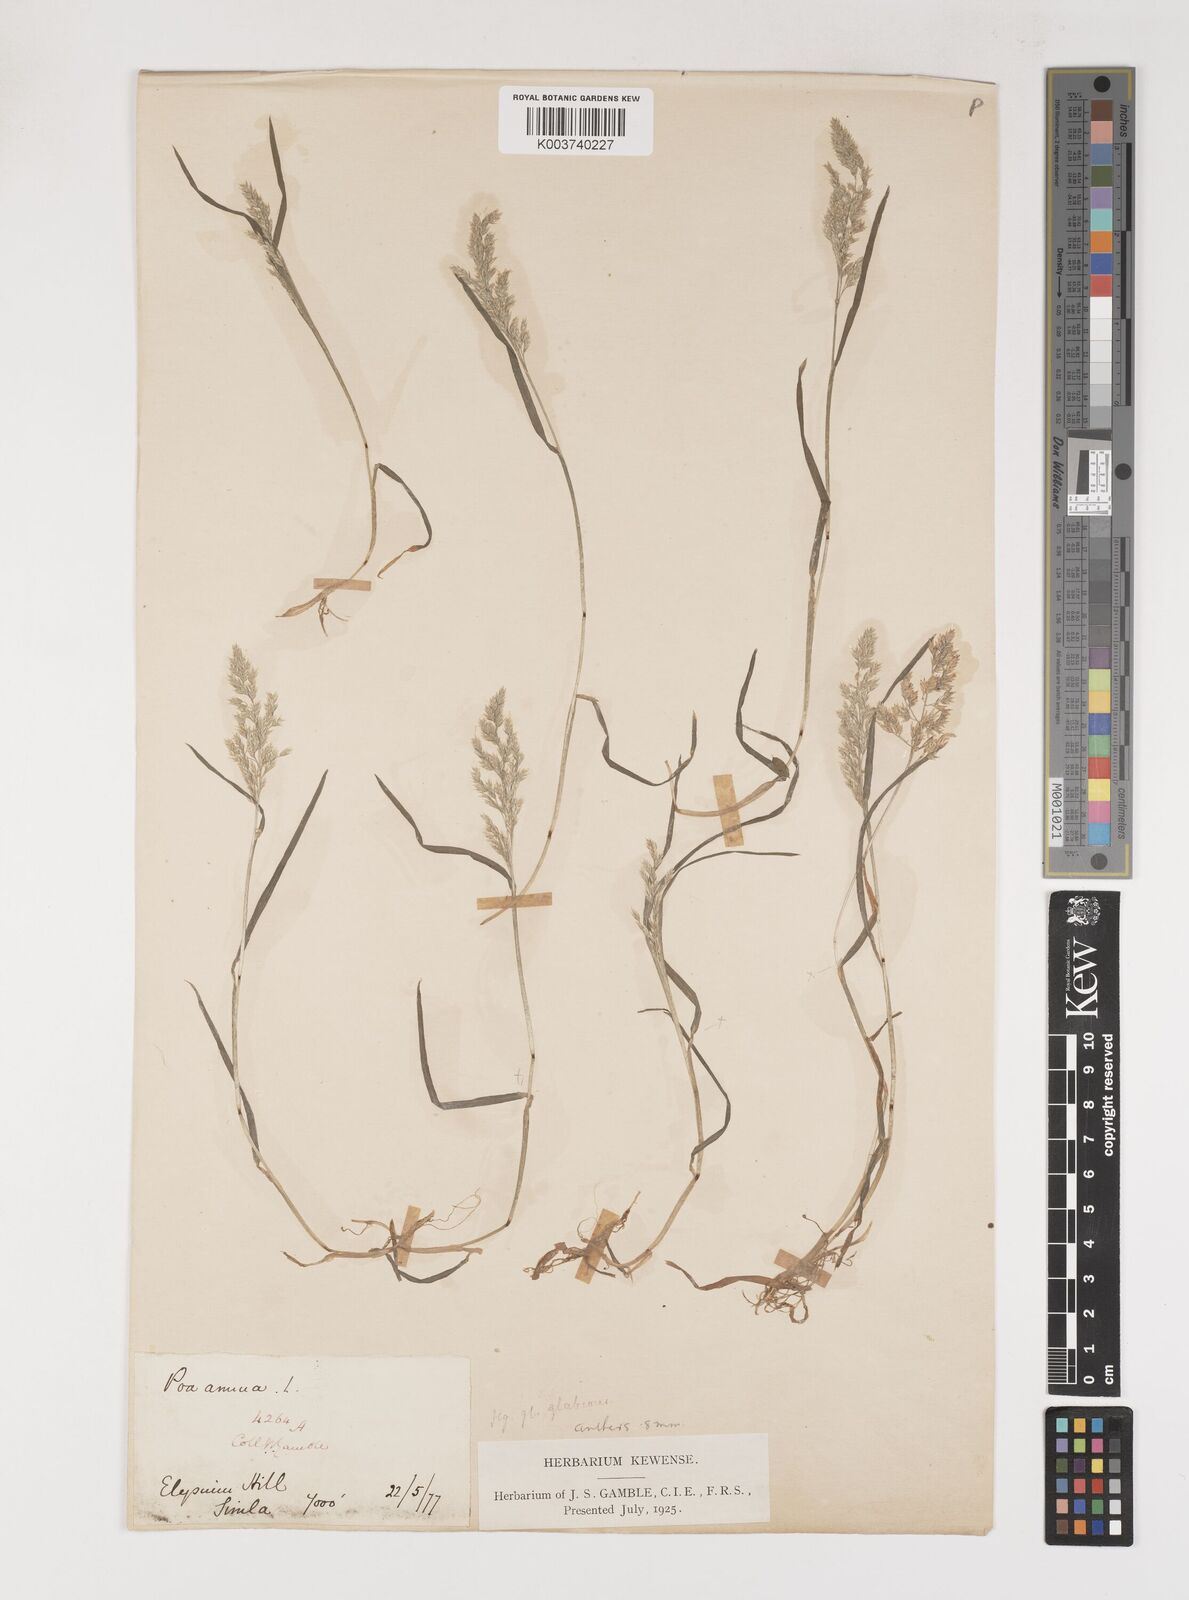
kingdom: Plantae
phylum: Tracheophyta
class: Liliopsida
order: Poales
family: Poaceae
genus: Poa
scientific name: Poa annua
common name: Annual bluegrass
